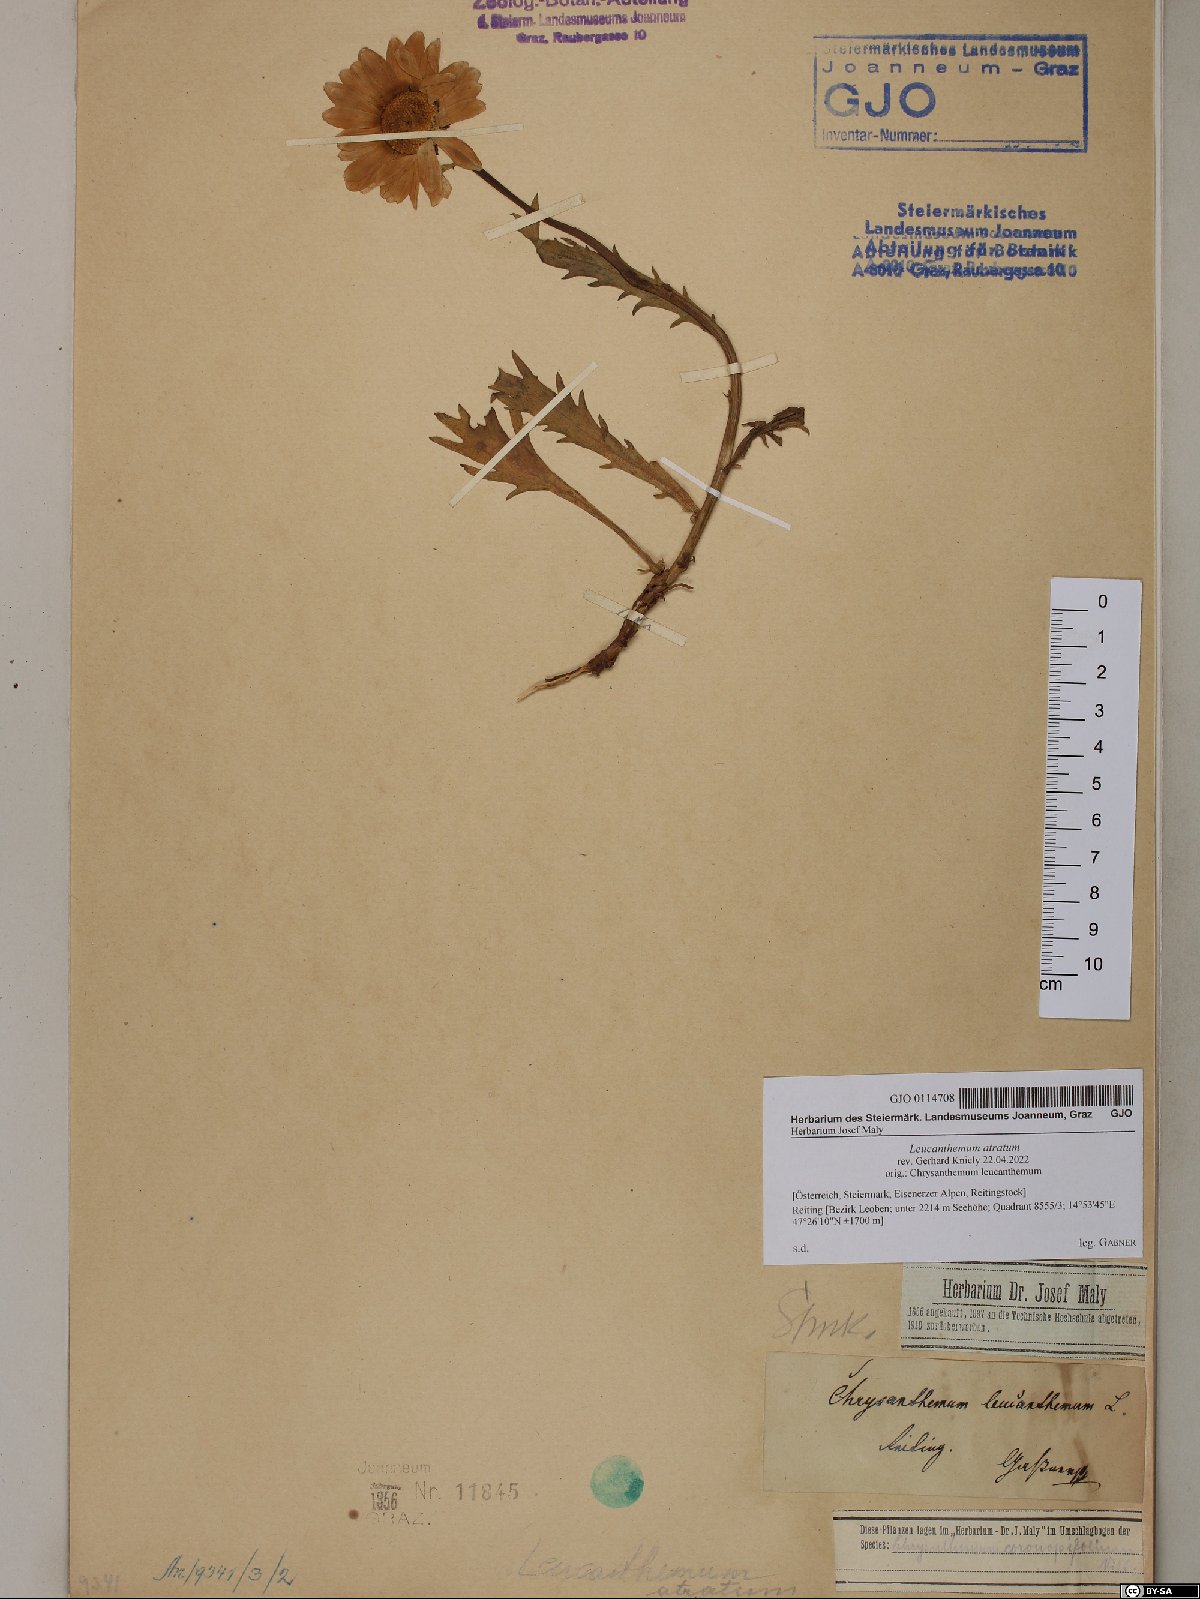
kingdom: Plantae
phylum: Tracheophyta
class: Magnoliopsida
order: Asterales
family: Asteraceae
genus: Leucanthemum
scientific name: Leucanthemum atratum
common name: Saw-leaved moon-daisy
